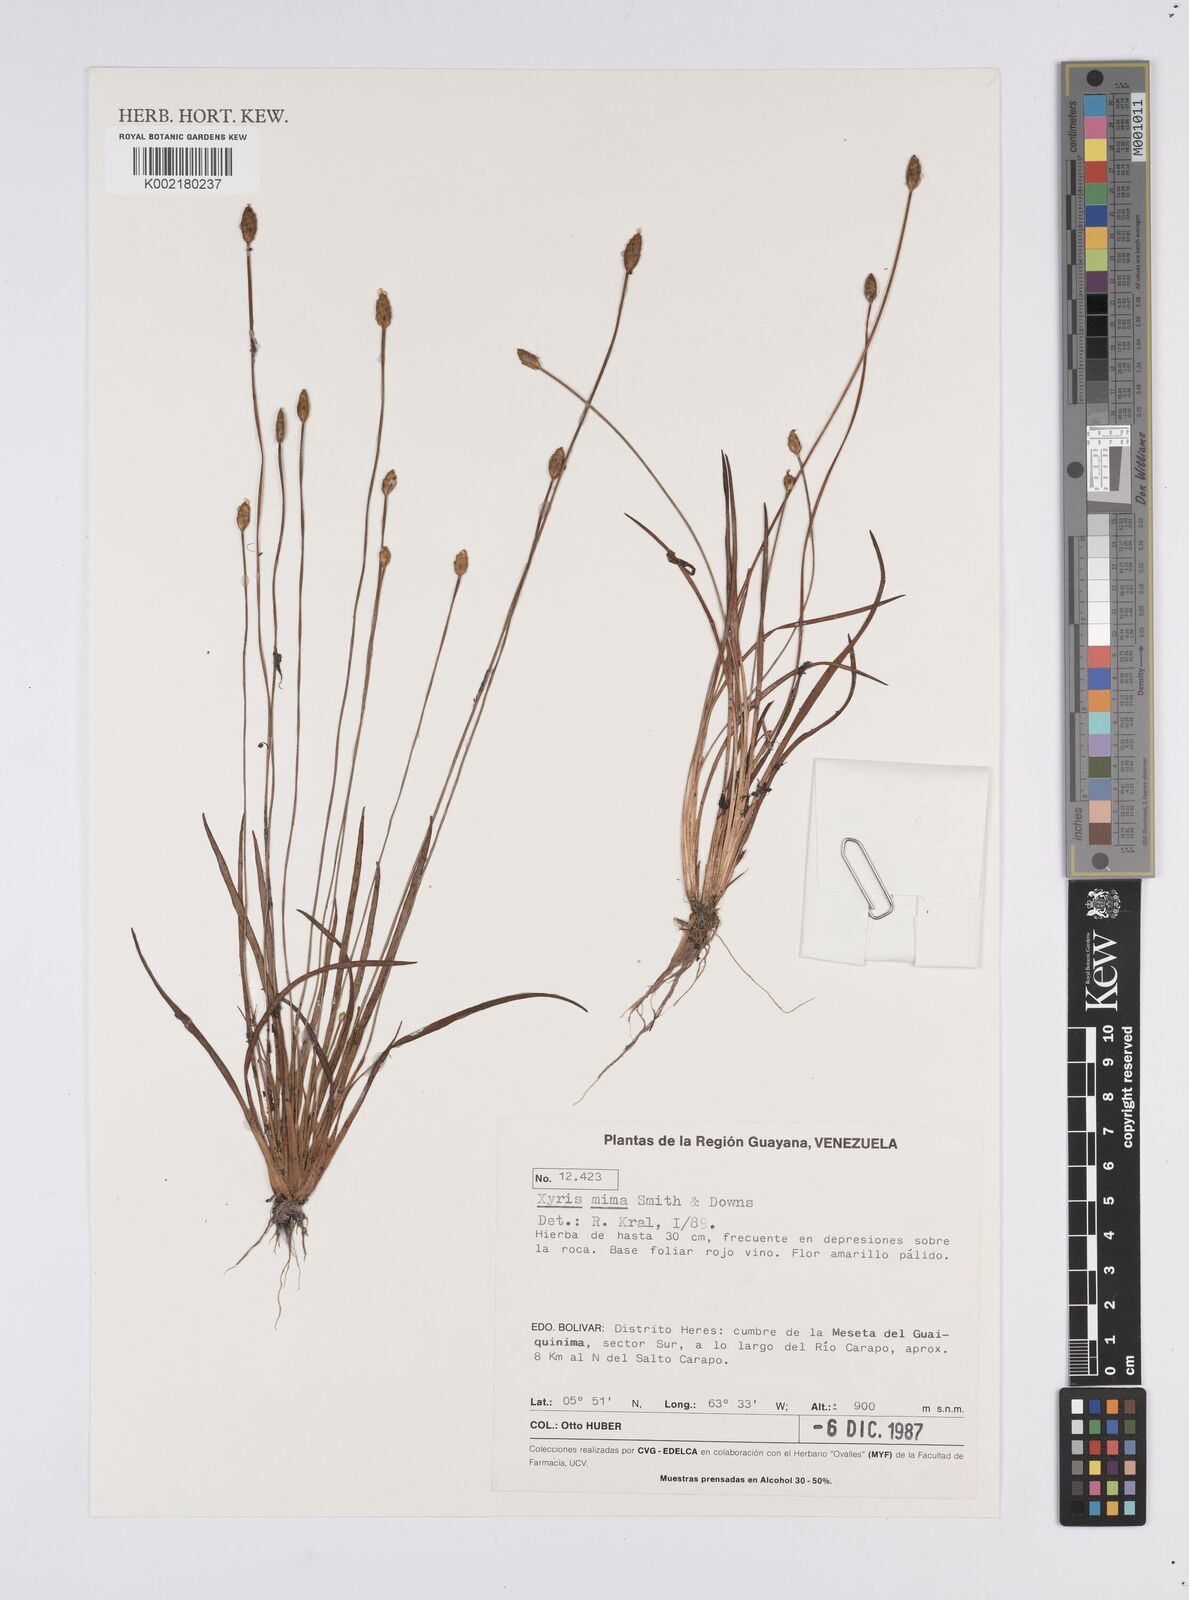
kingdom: Plantae
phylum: Tracheophyta
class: Liliopsida
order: Poales
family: Xyridaceae
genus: Xyris
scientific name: Xyris mima
